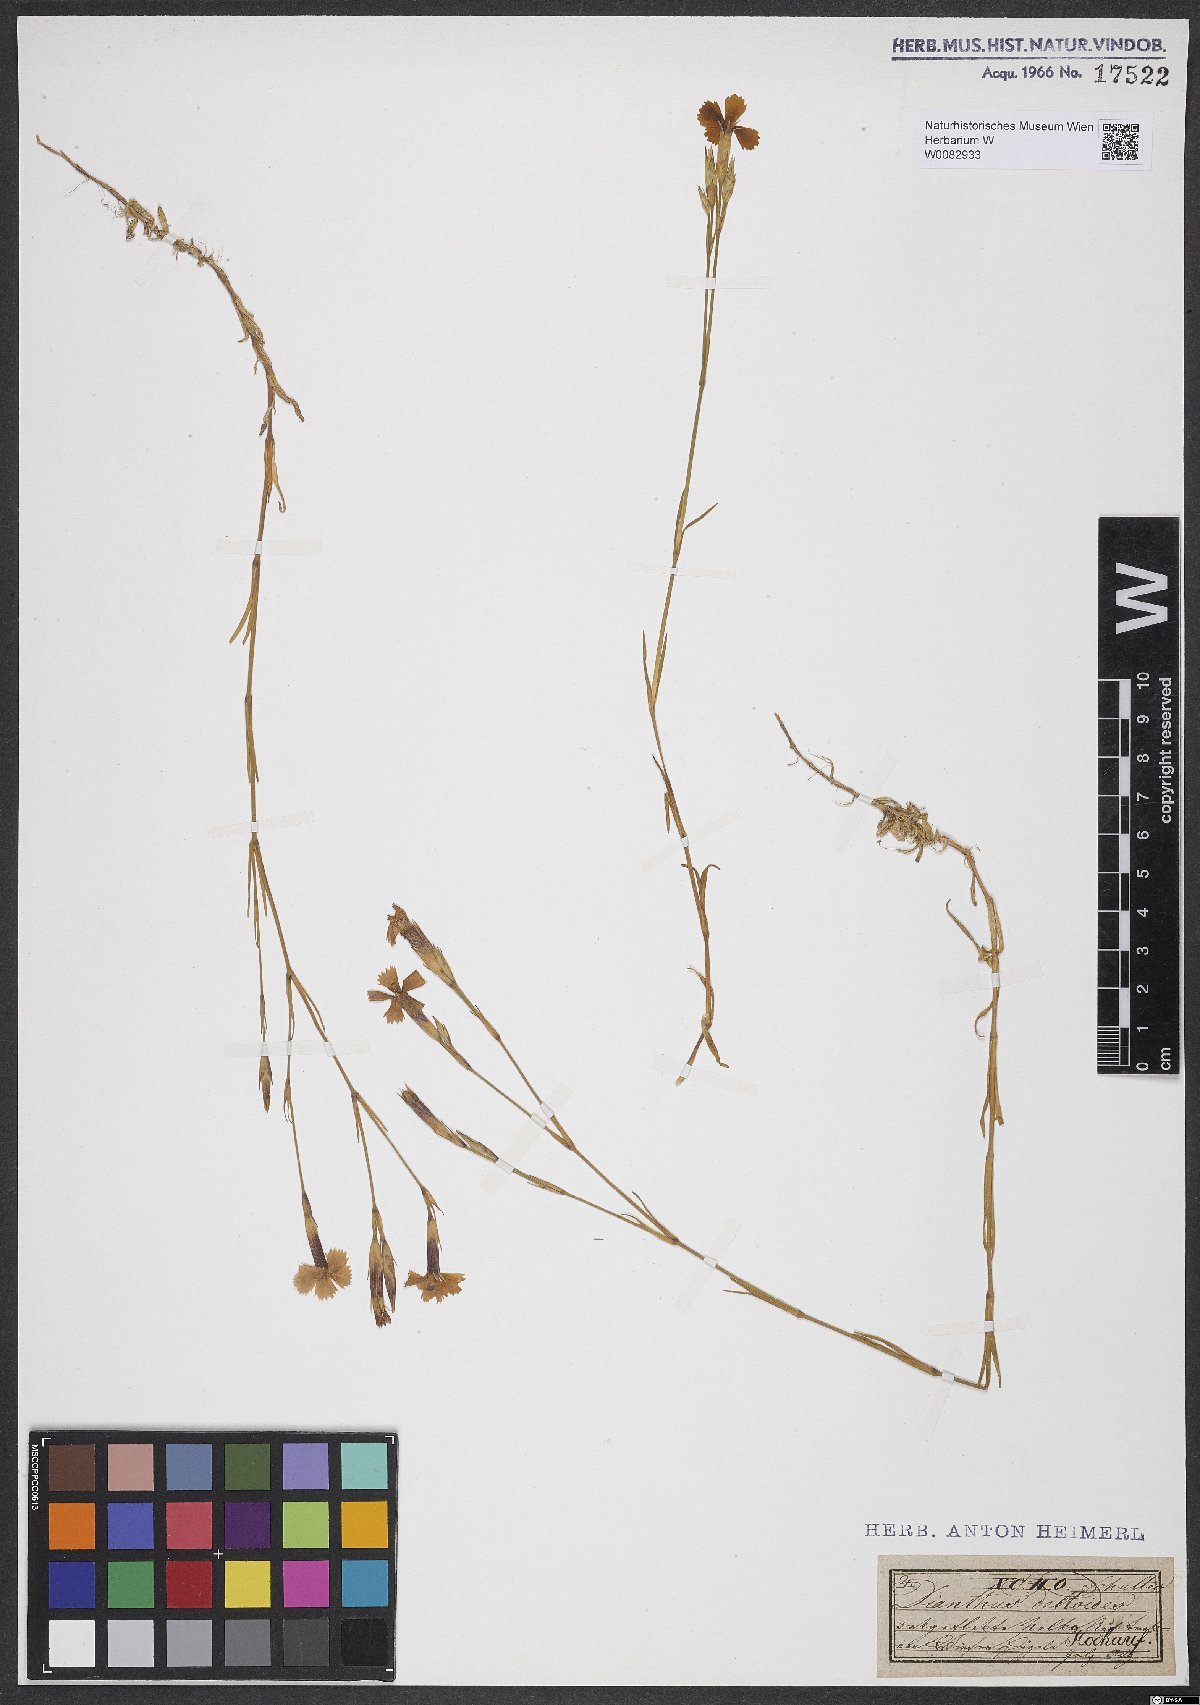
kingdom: Plantae
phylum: Tracheophyta
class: Magnoliopsida
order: Caryophyllales
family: Caryophyllaceae
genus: Dianthus
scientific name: Dianthus deltoides
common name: Maiden pink
